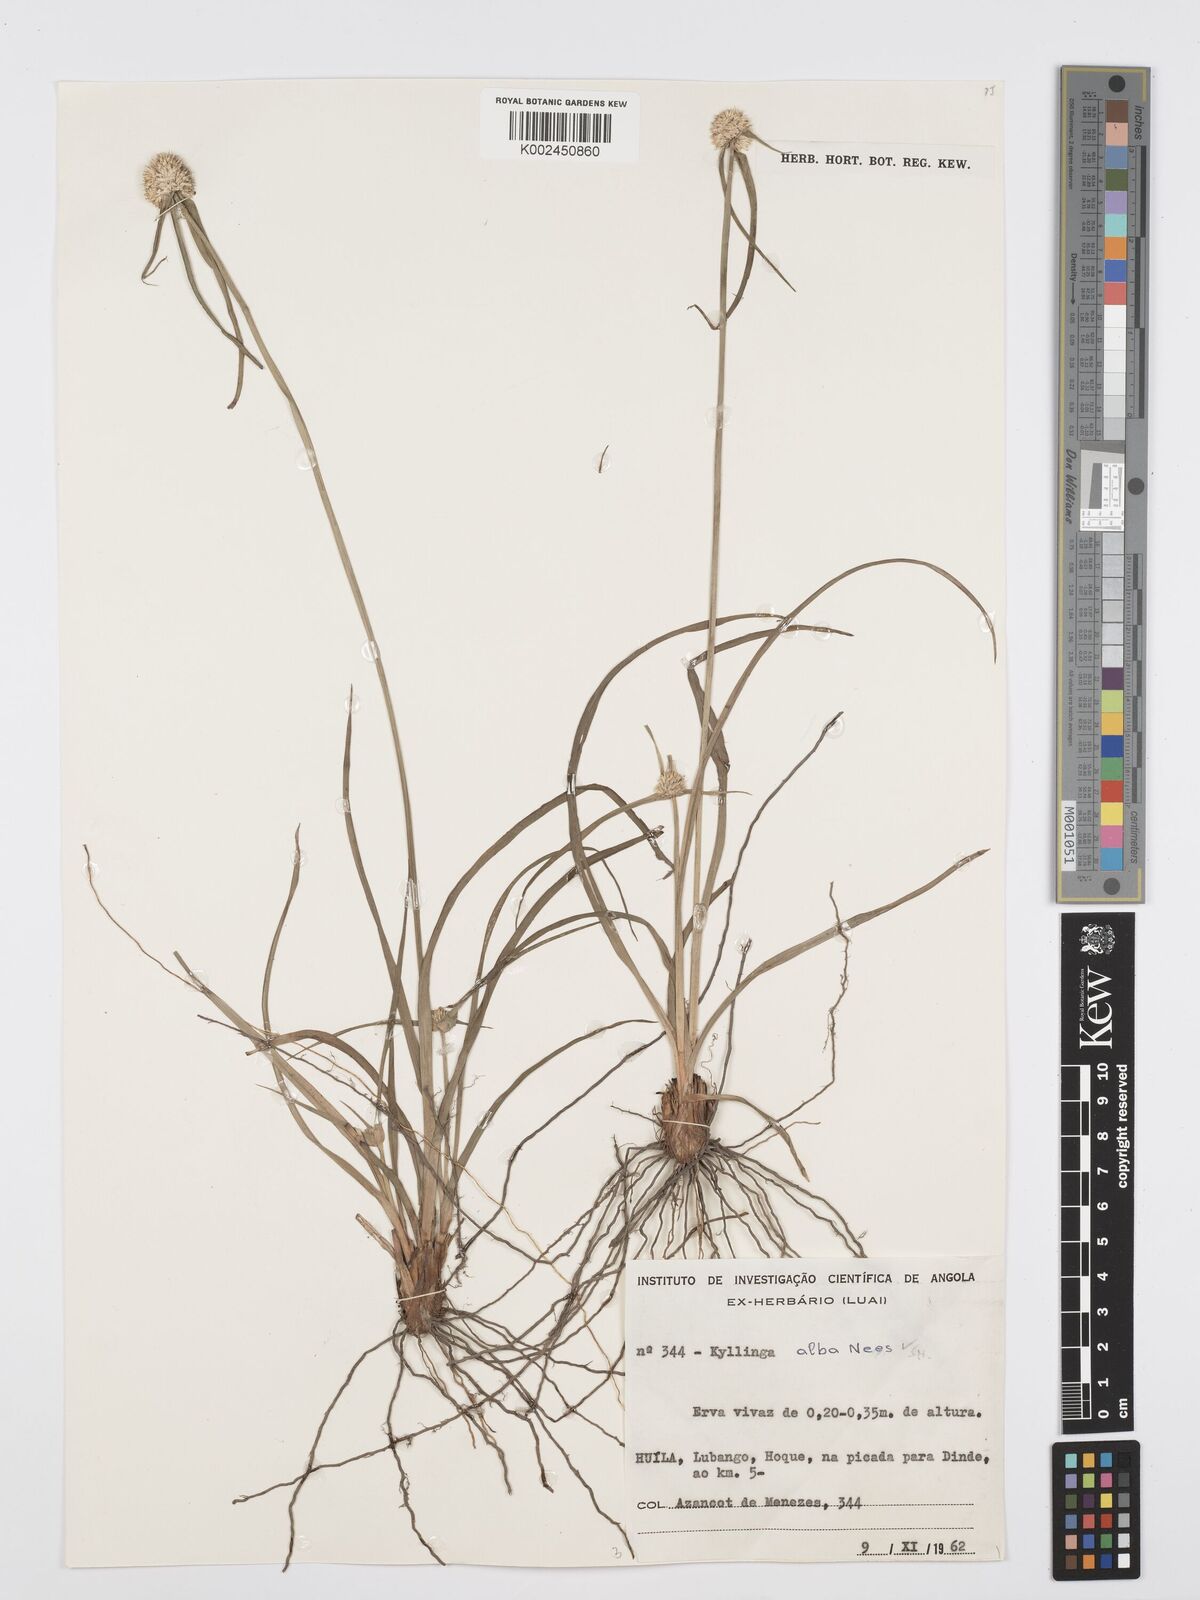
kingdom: Plantae
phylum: Tracheophyta
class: Liliopsida
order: Poales
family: Cyperaceae
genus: Cyperus
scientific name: Cyperus
